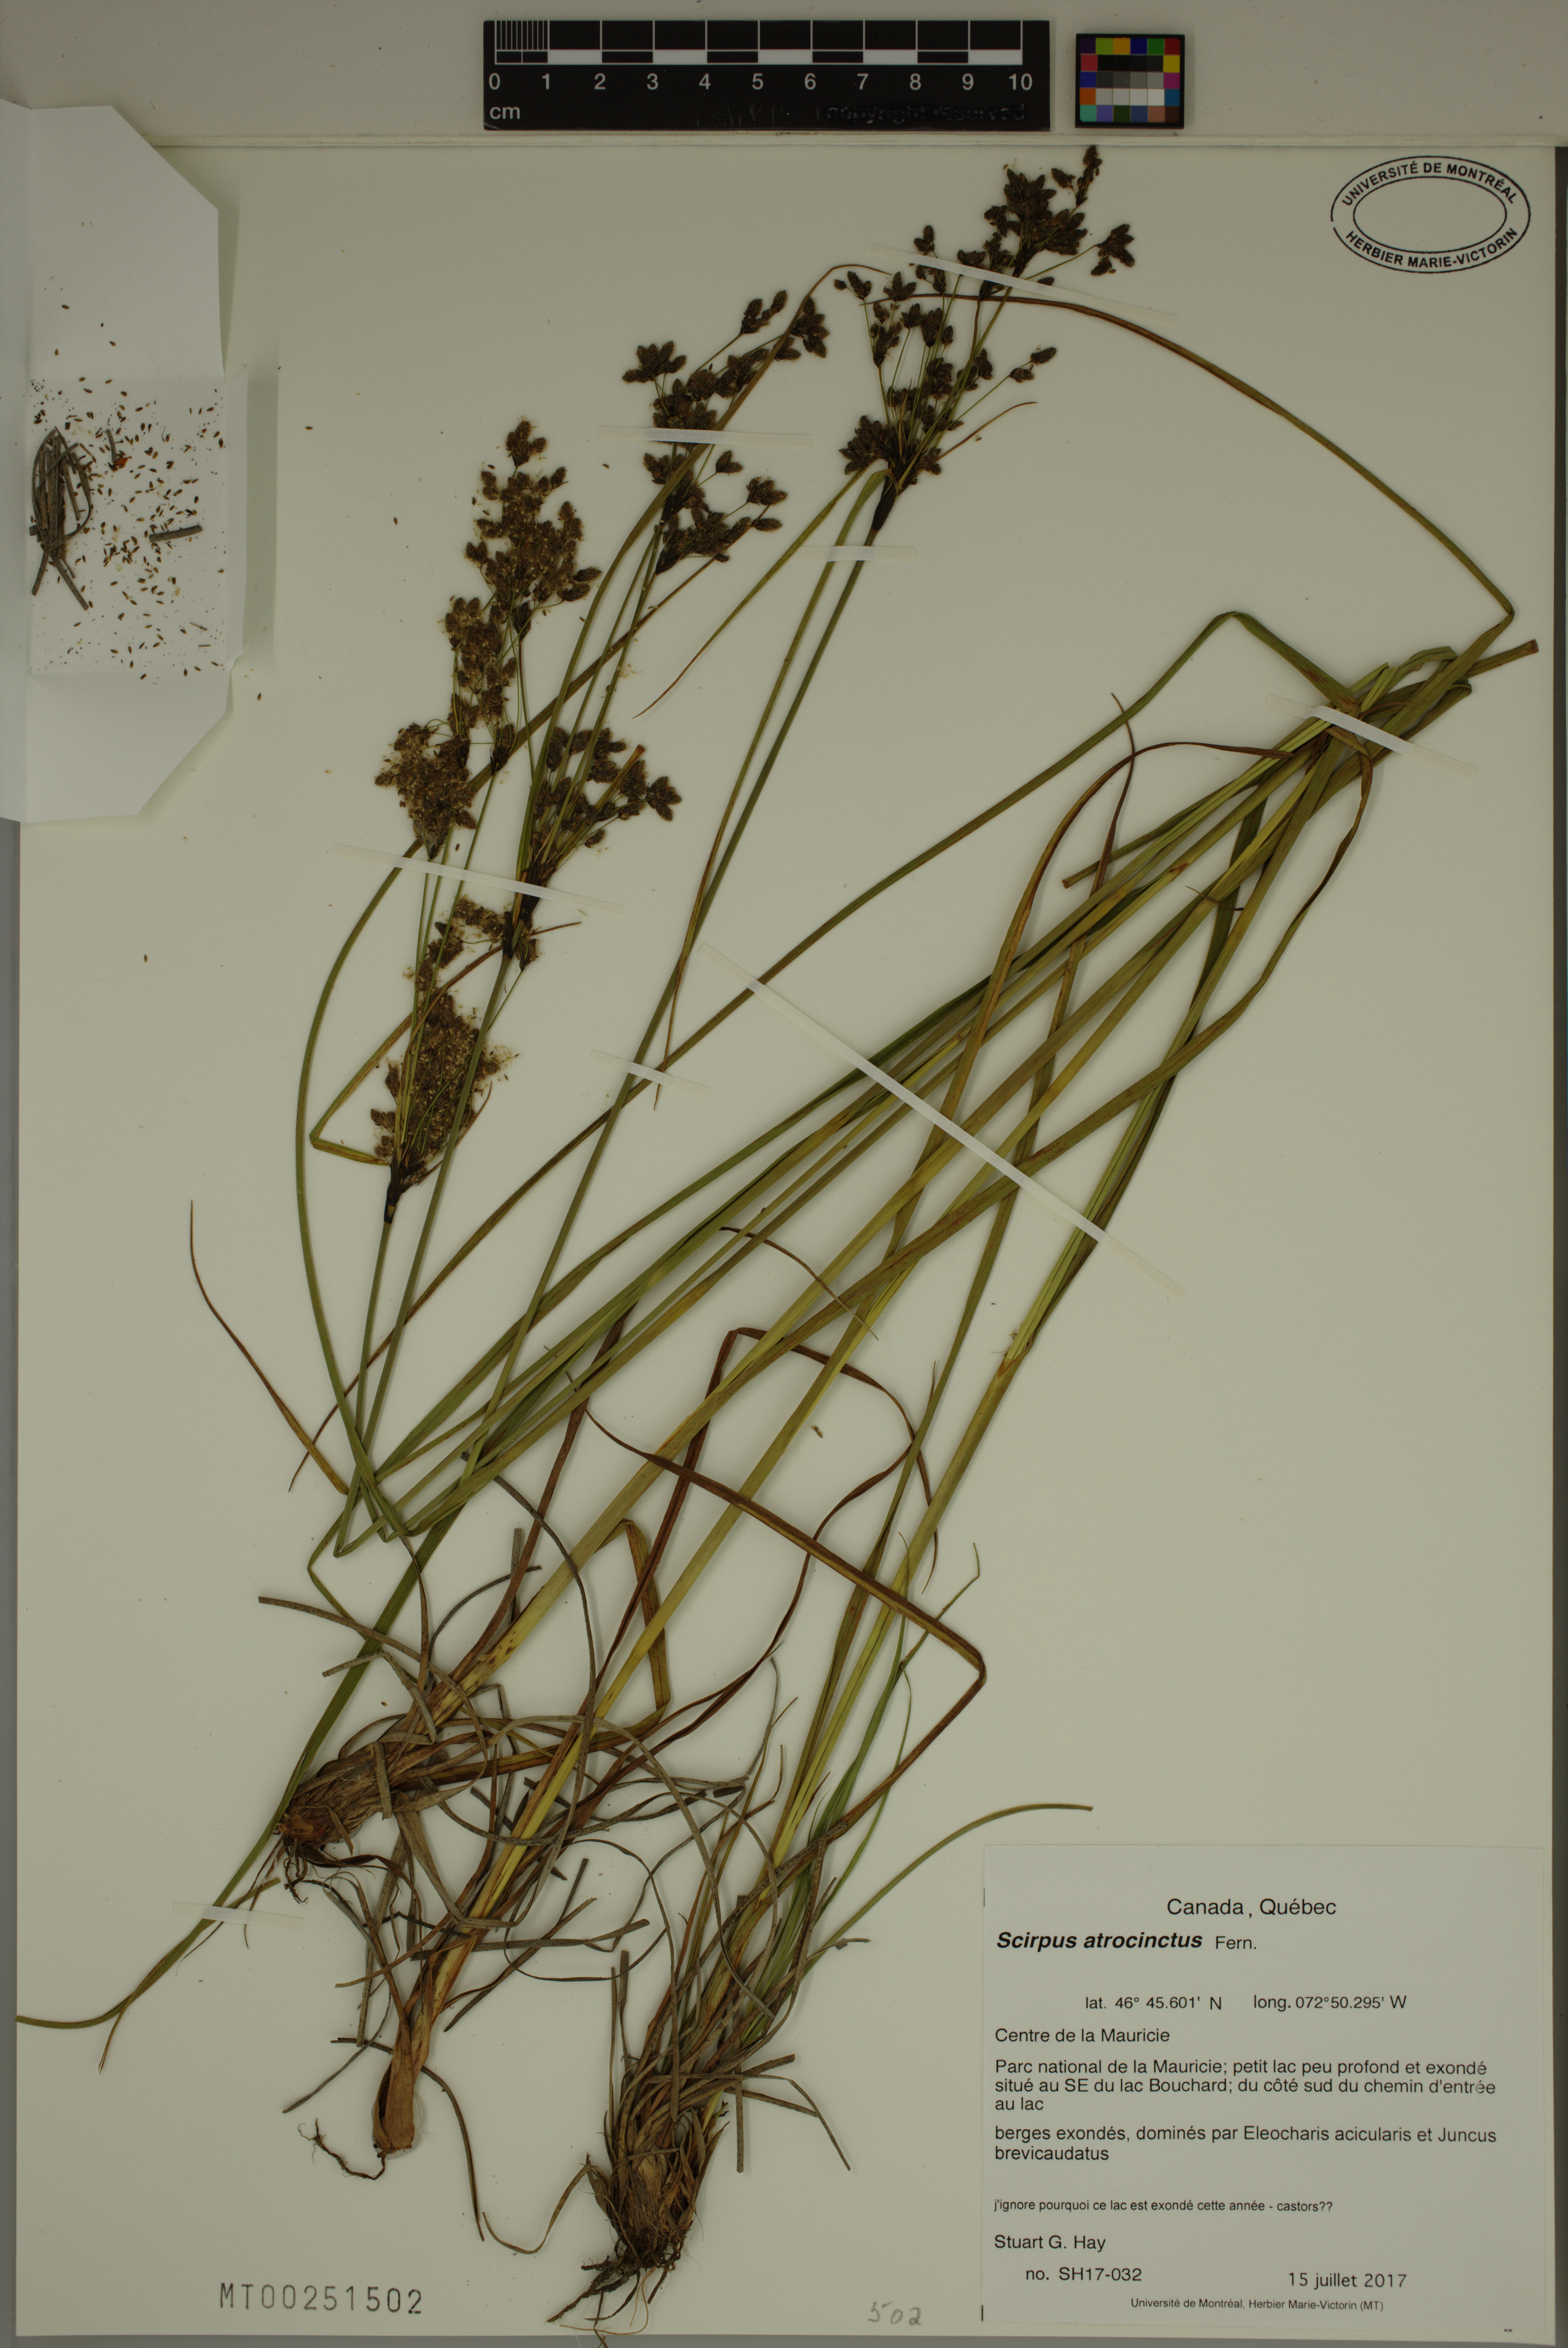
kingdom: Plantae
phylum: Tracheophyta
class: Liliopsida
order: Poales
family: Cyperaceae
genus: Scirpus
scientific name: Scirpus atrocinctus
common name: Black-girdled bulrush
